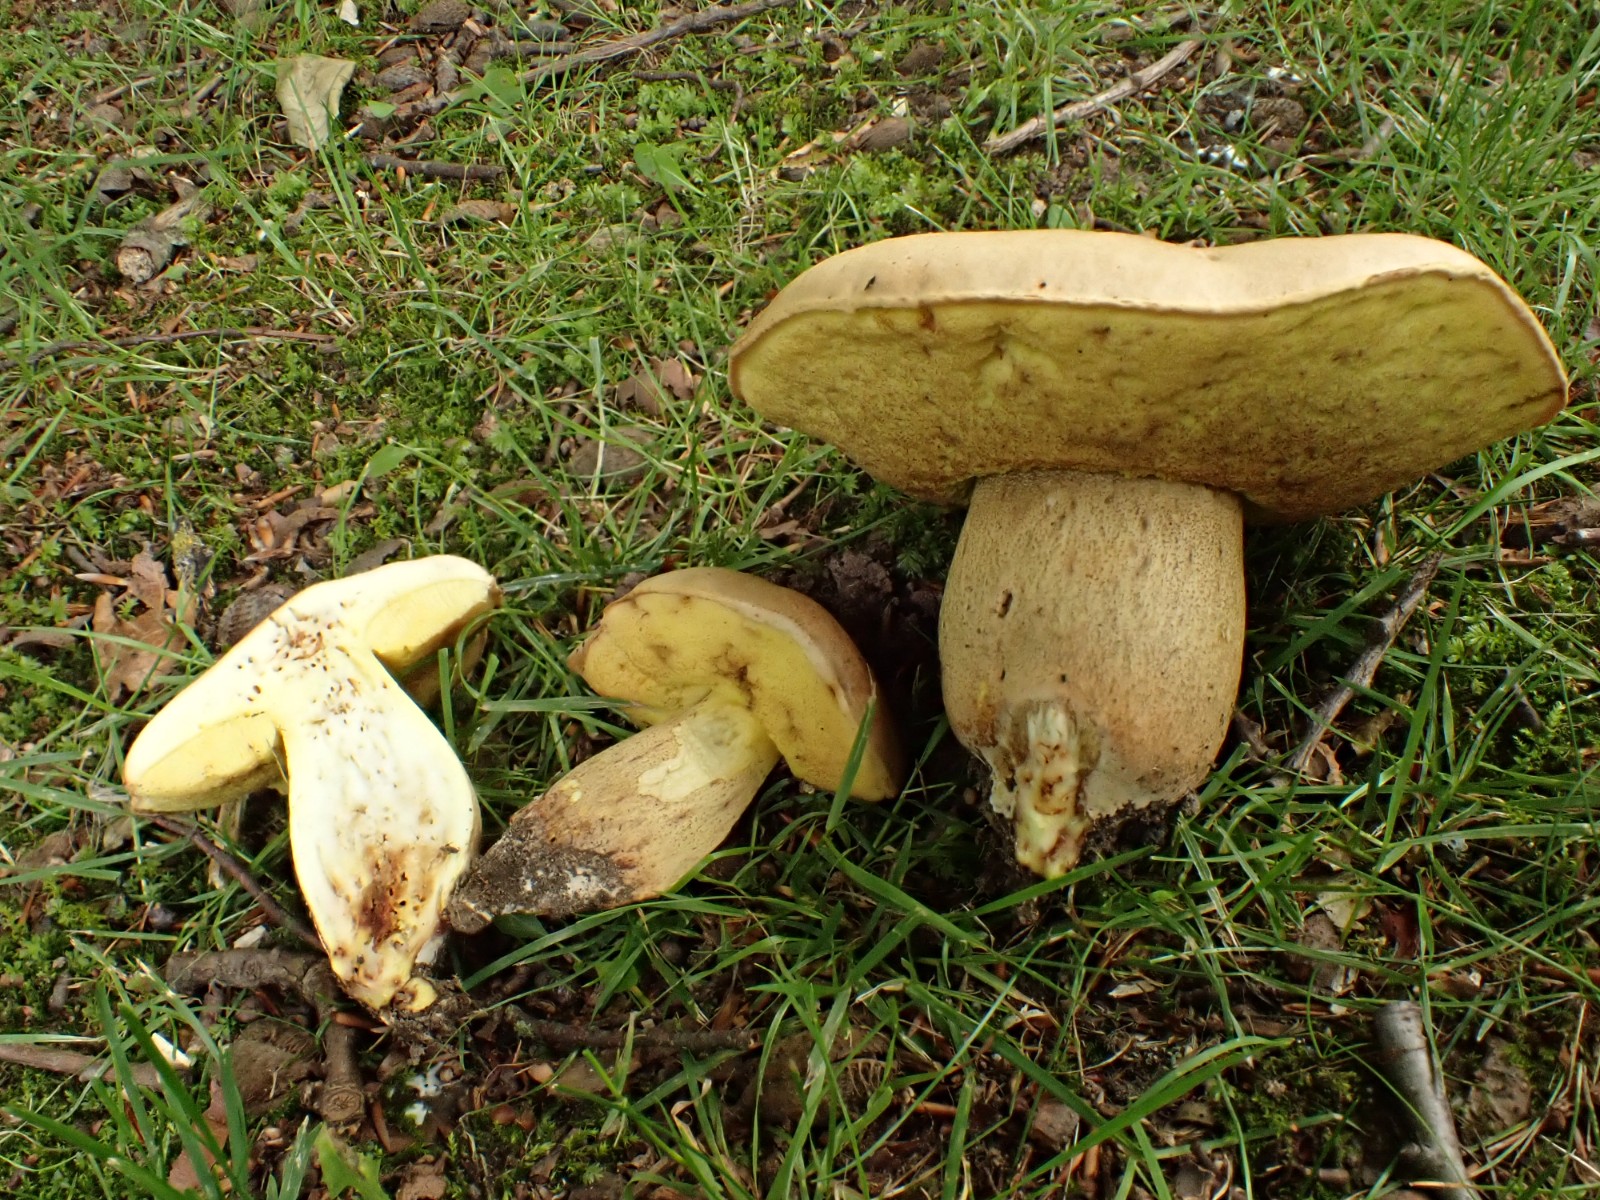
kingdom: Fungi
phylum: Basidiomycota
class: Agaricomycetes
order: Boletales
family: Boletaceae
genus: Hemileccinum
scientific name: Hemileccinum impolitum
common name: bleg rørhat
